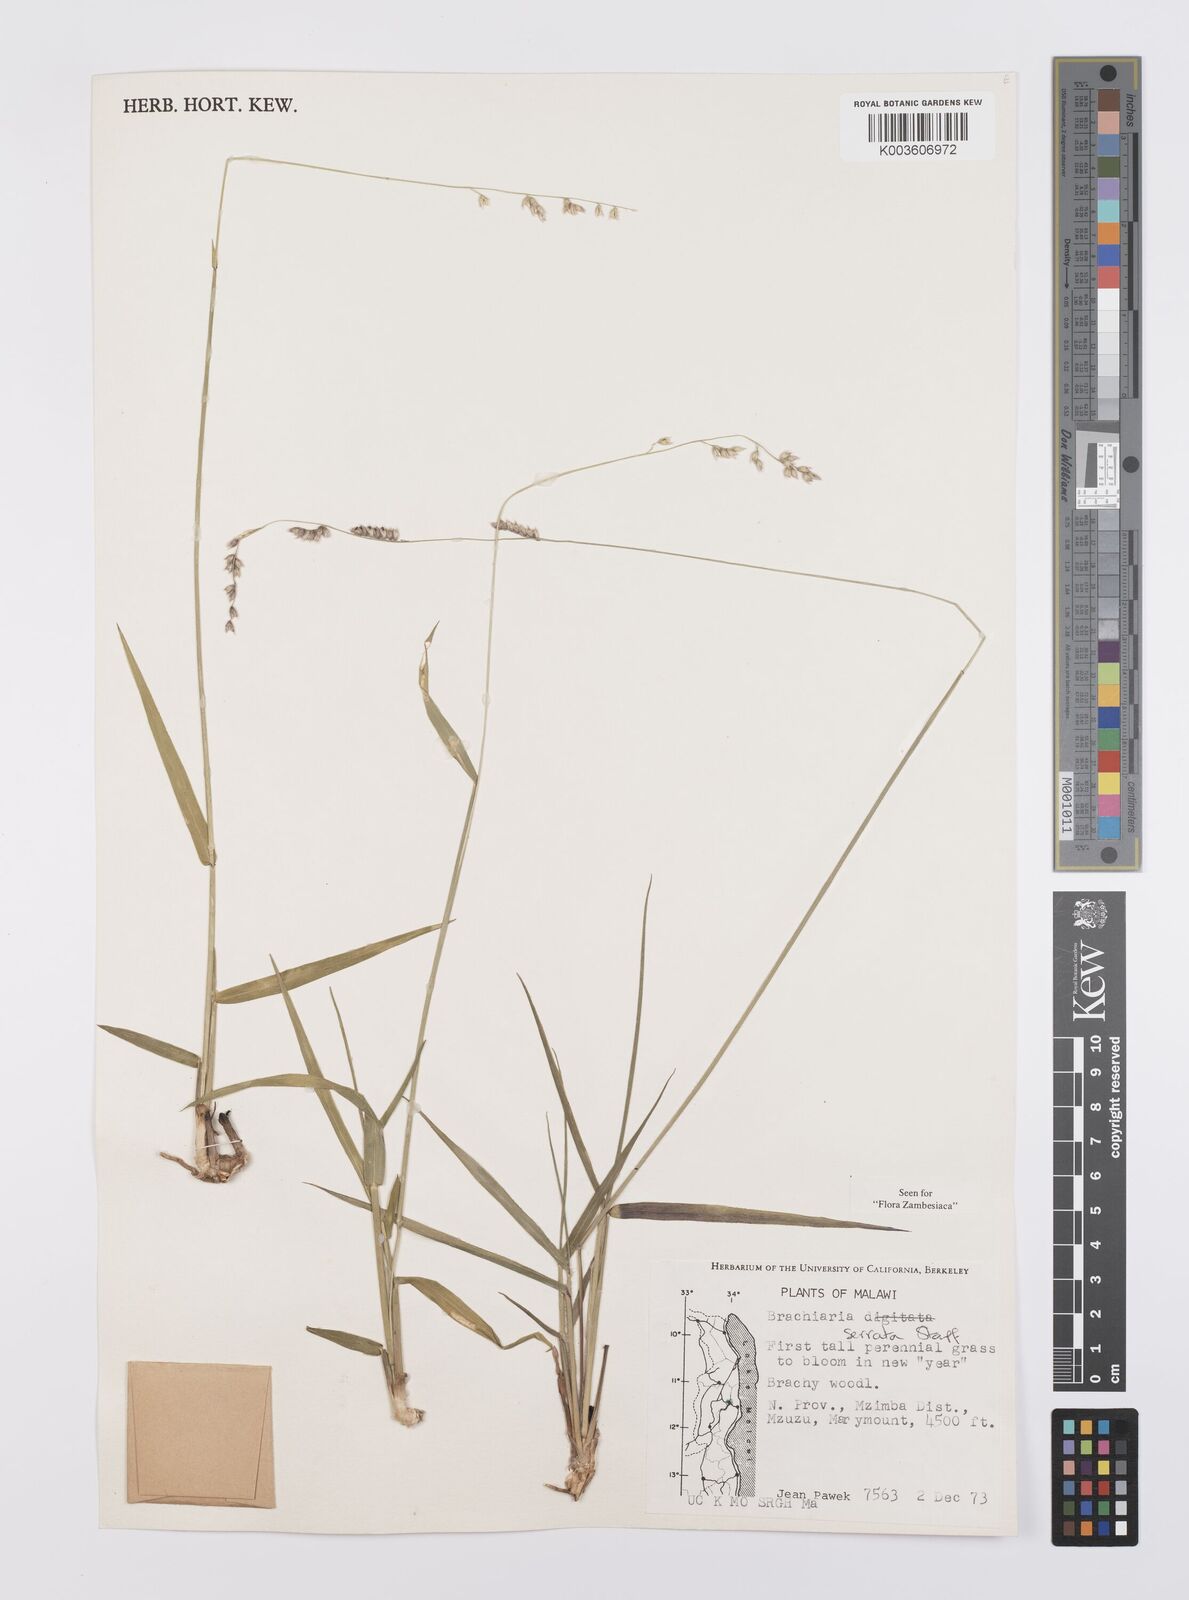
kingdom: Plantae
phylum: Tracheophyta
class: Liliopsida
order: Poales
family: Poaceae
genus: Urochloa
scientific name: Urochloa serrata
